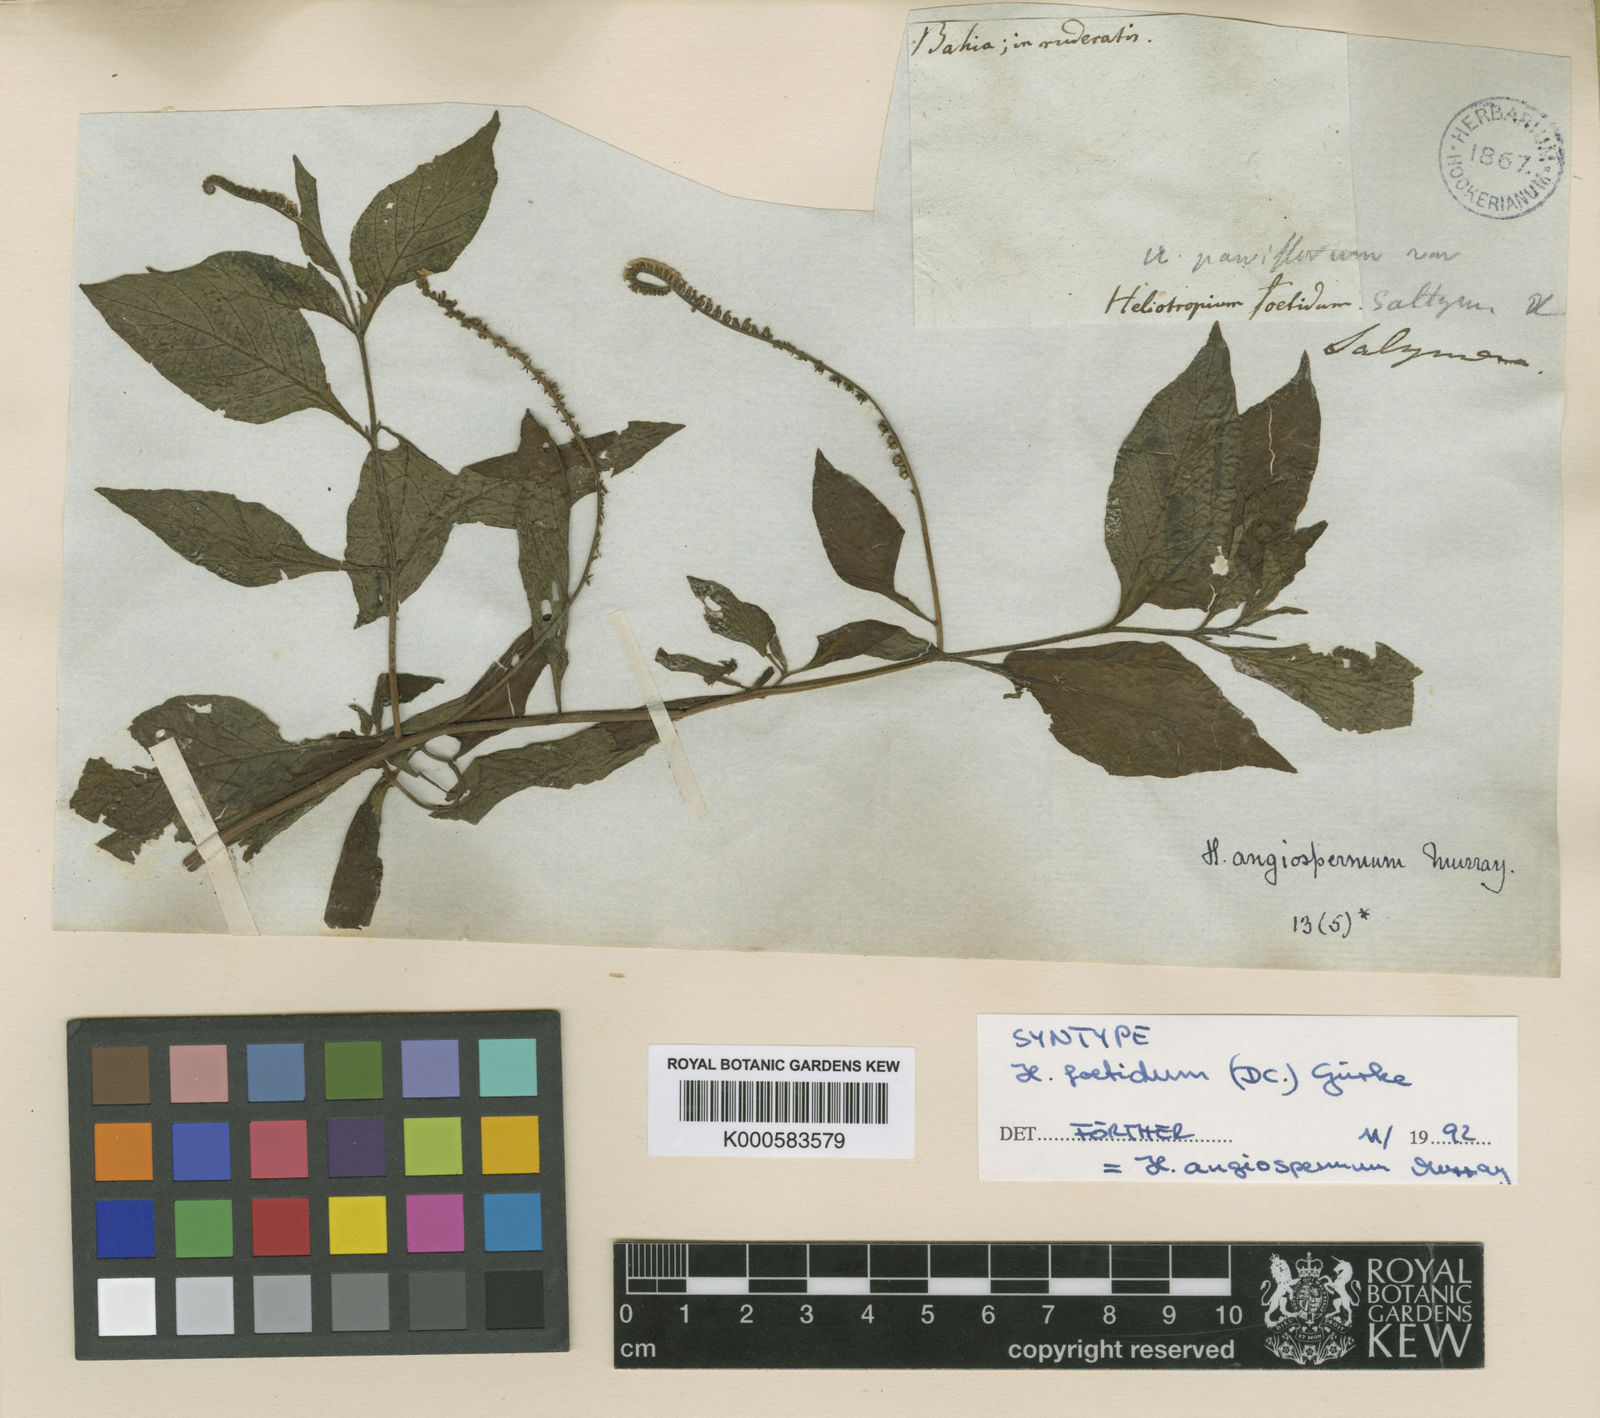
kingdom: Plantae
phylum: Tracheophyta
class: Magnoliopsida
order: Boraginales
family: Heliotropiaceae
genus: Heliotropium
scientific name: Heliotropium angiospermum
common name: Eye bright
